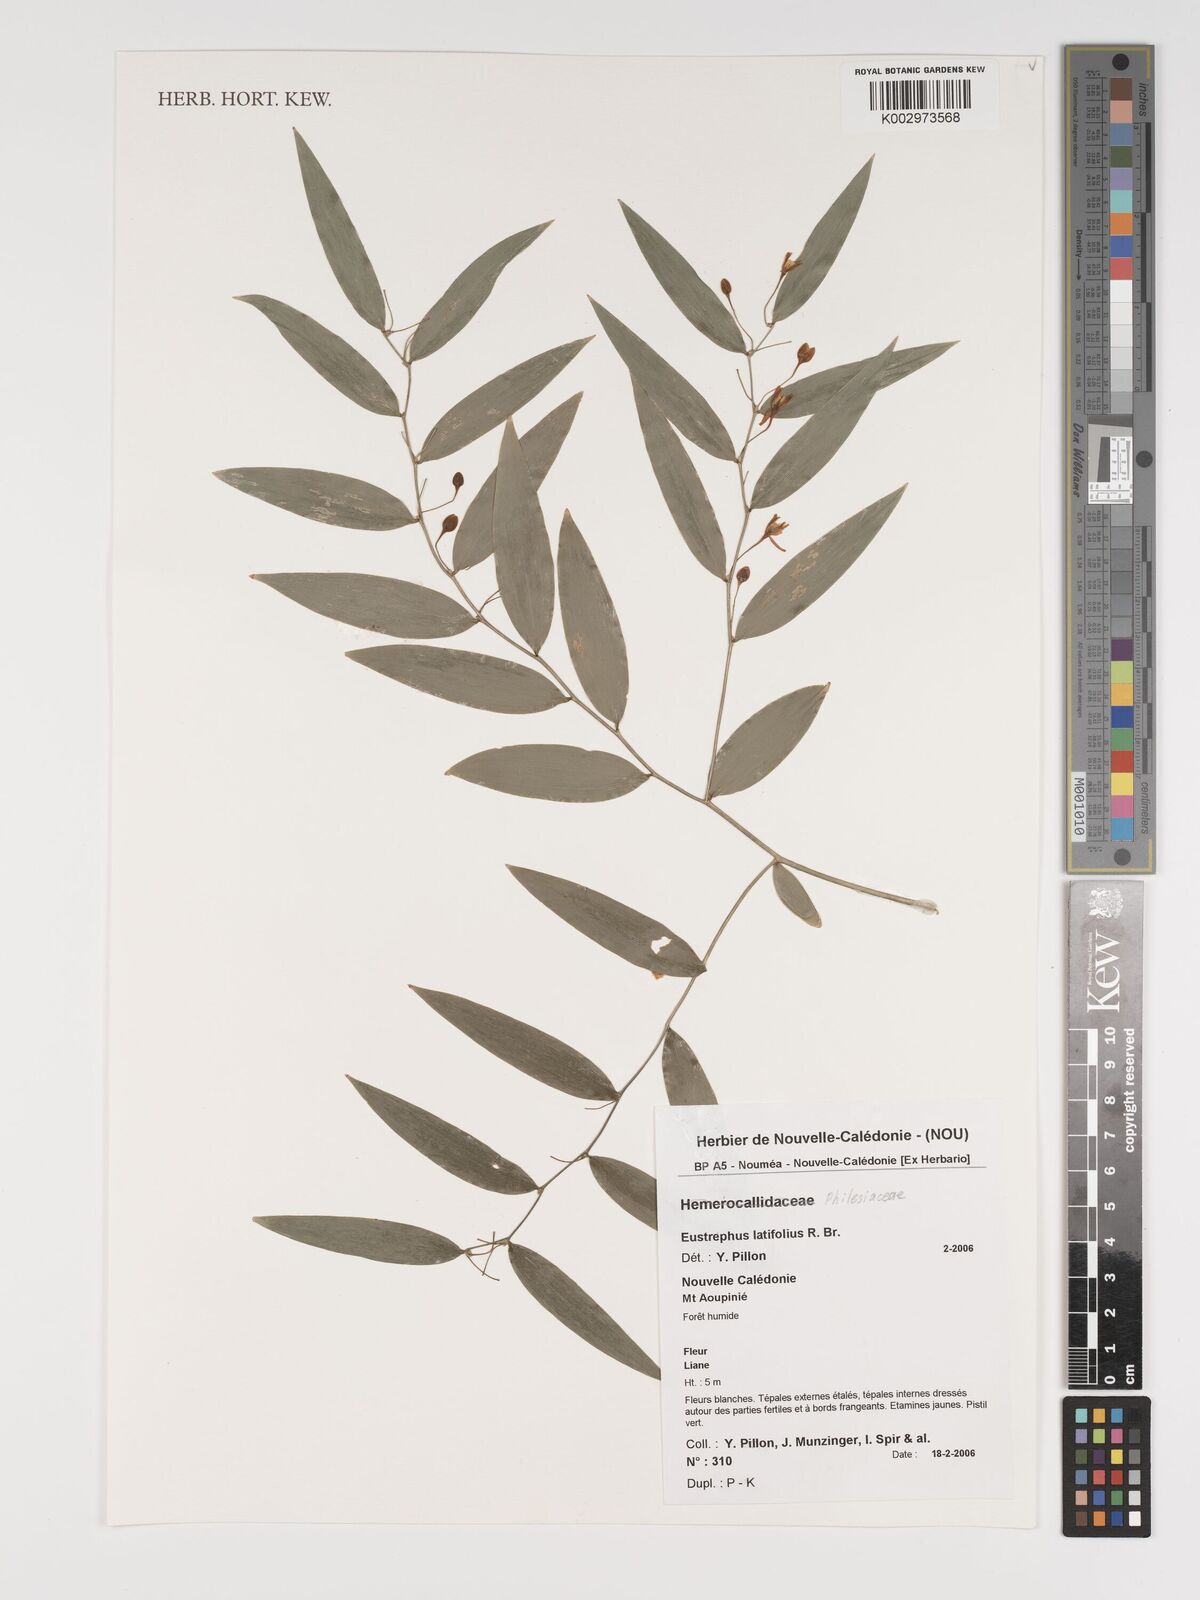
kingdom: Plantae
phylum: Tracheophyta
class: Liliopsida
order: Asparagales
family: Asparagaceae
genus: Eustrephus
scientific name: Eustrephus latifolius
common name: Orangevine
